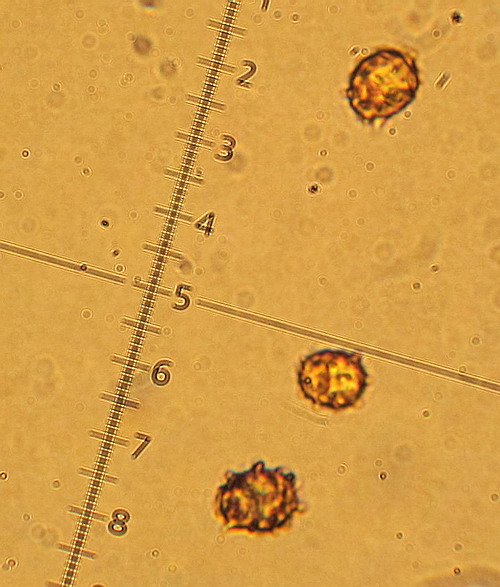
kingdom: Fungi
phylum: Basidiomycota
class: Agaricomycetes
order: Russulales
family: Russulaceae
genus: Lactarius
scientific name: Lactarius obscuratus
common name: elle-mælkehat
